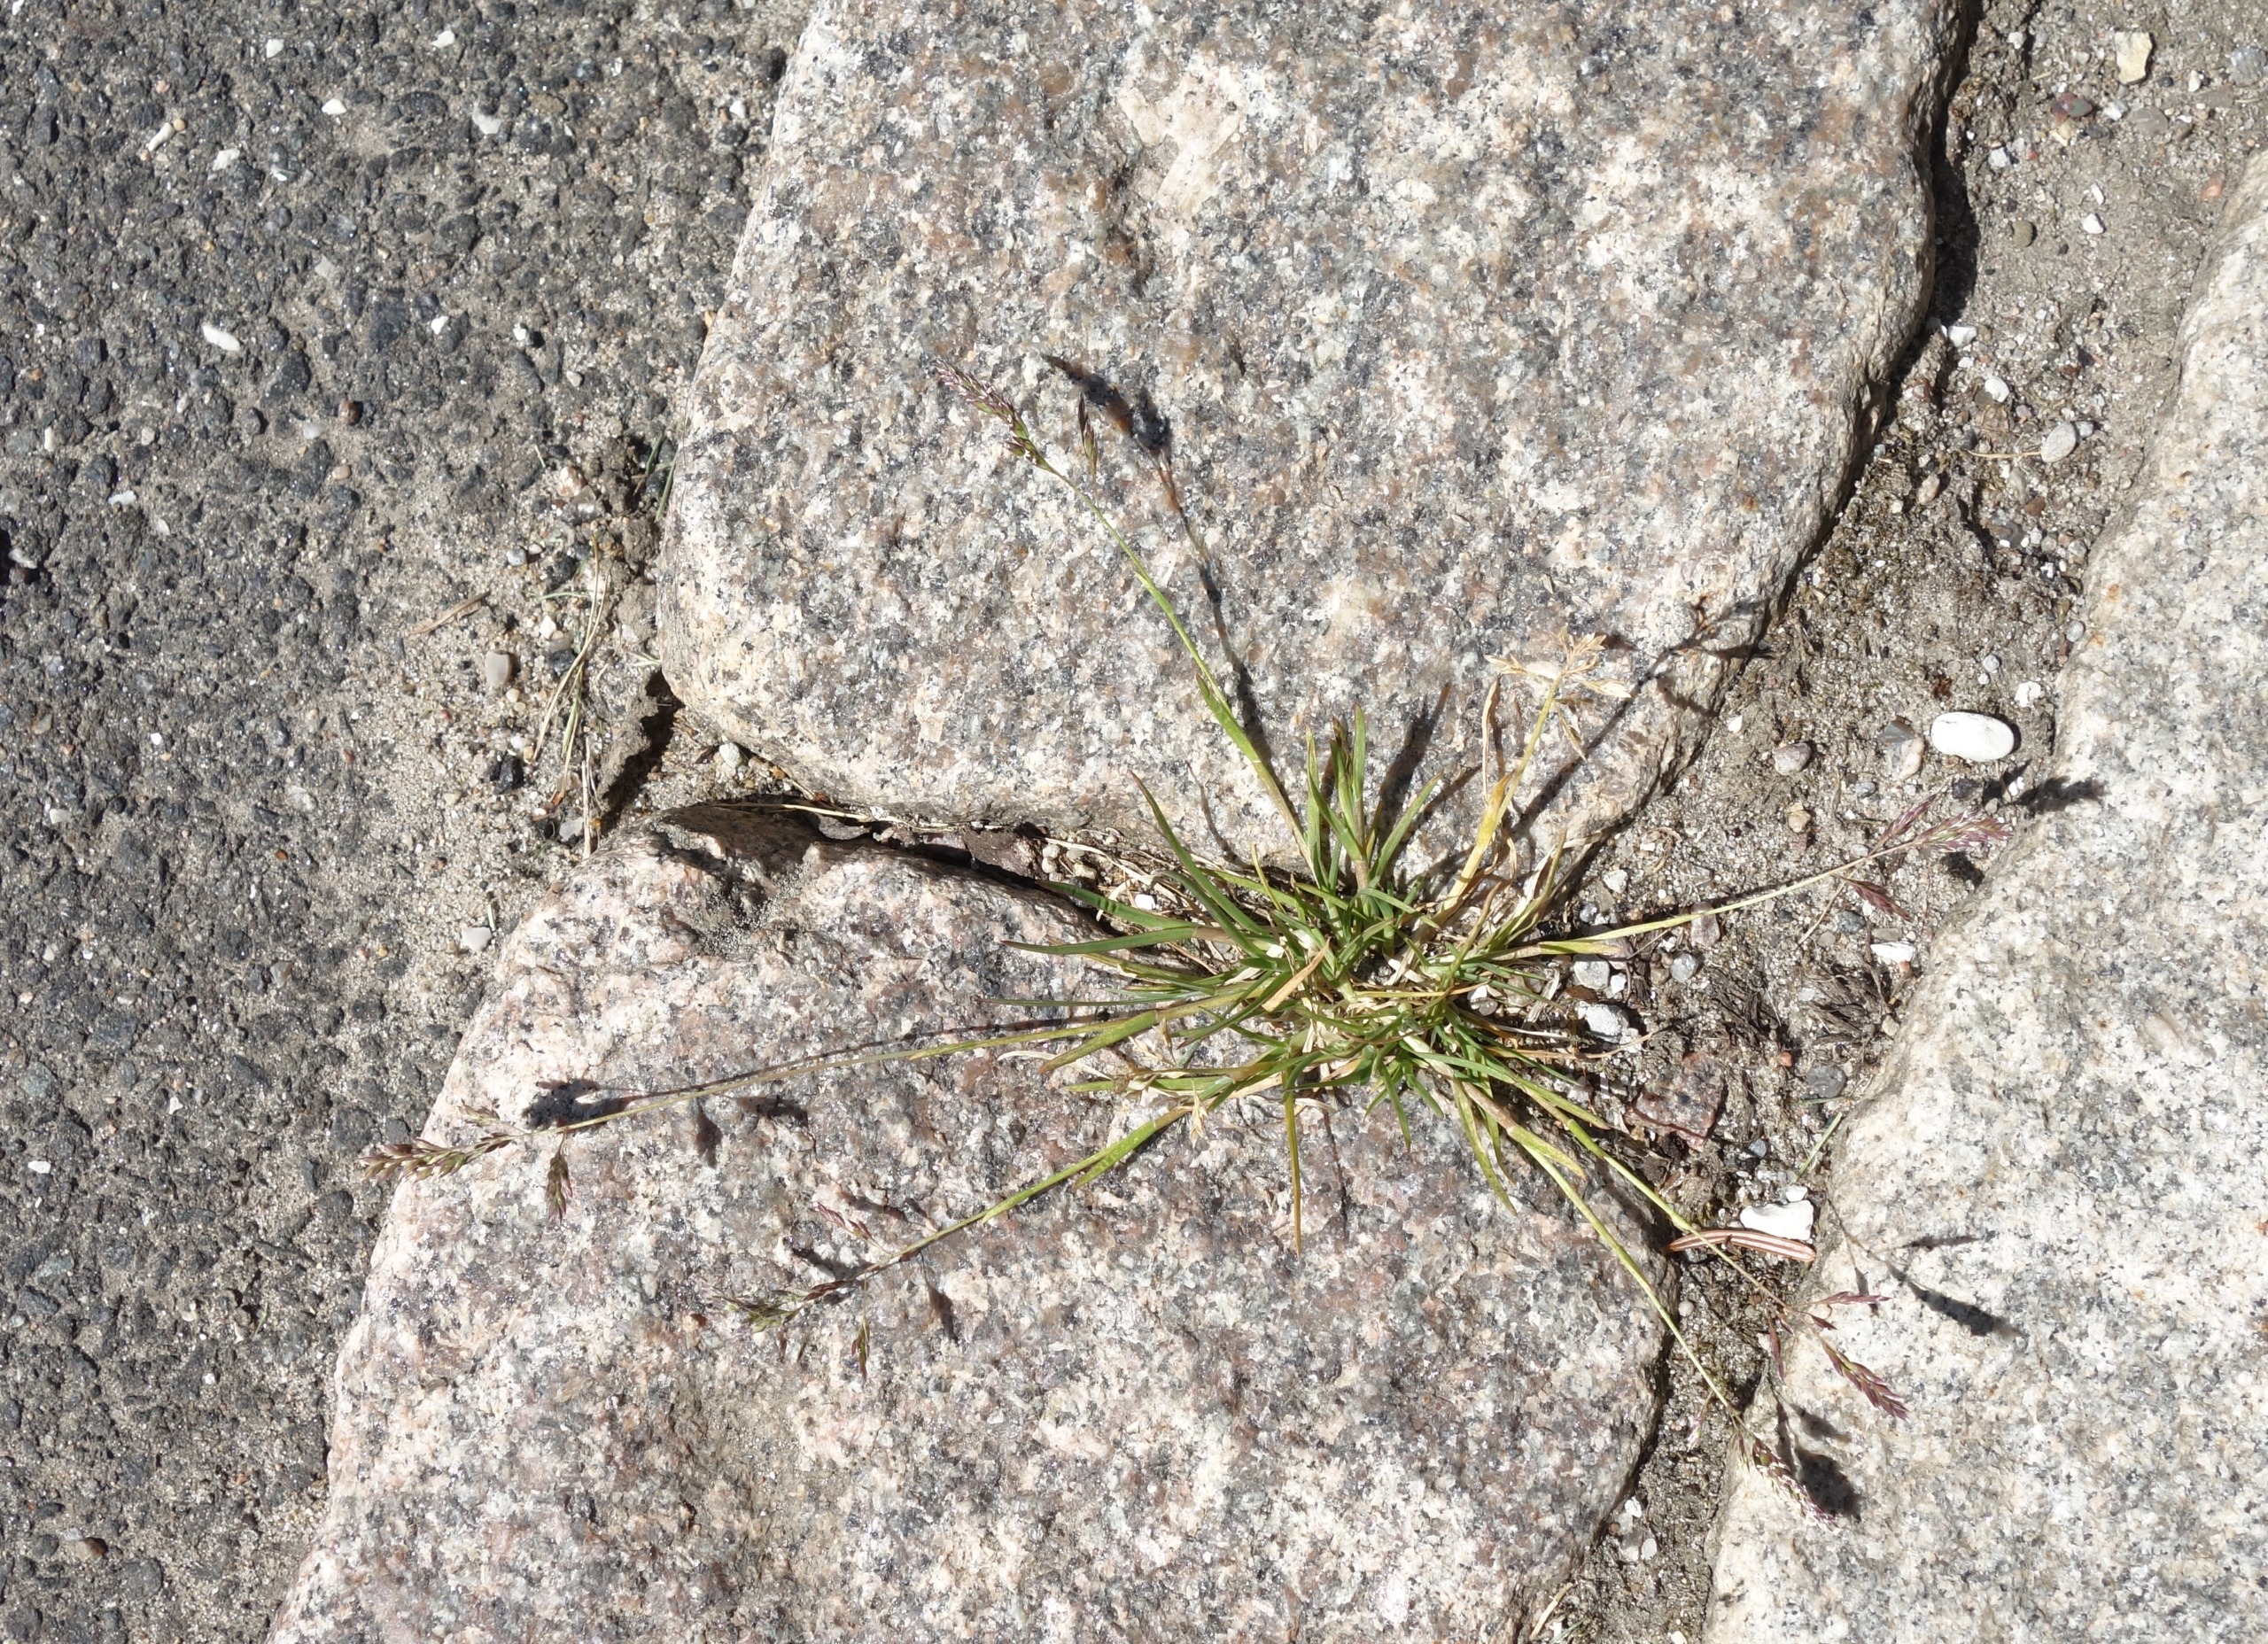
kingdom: Plantae
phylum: Tracheophyta
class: Liliopsida
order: Poales
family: Poaceae
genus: Poa
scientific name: Poa annua
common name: Enårig rapgræs
